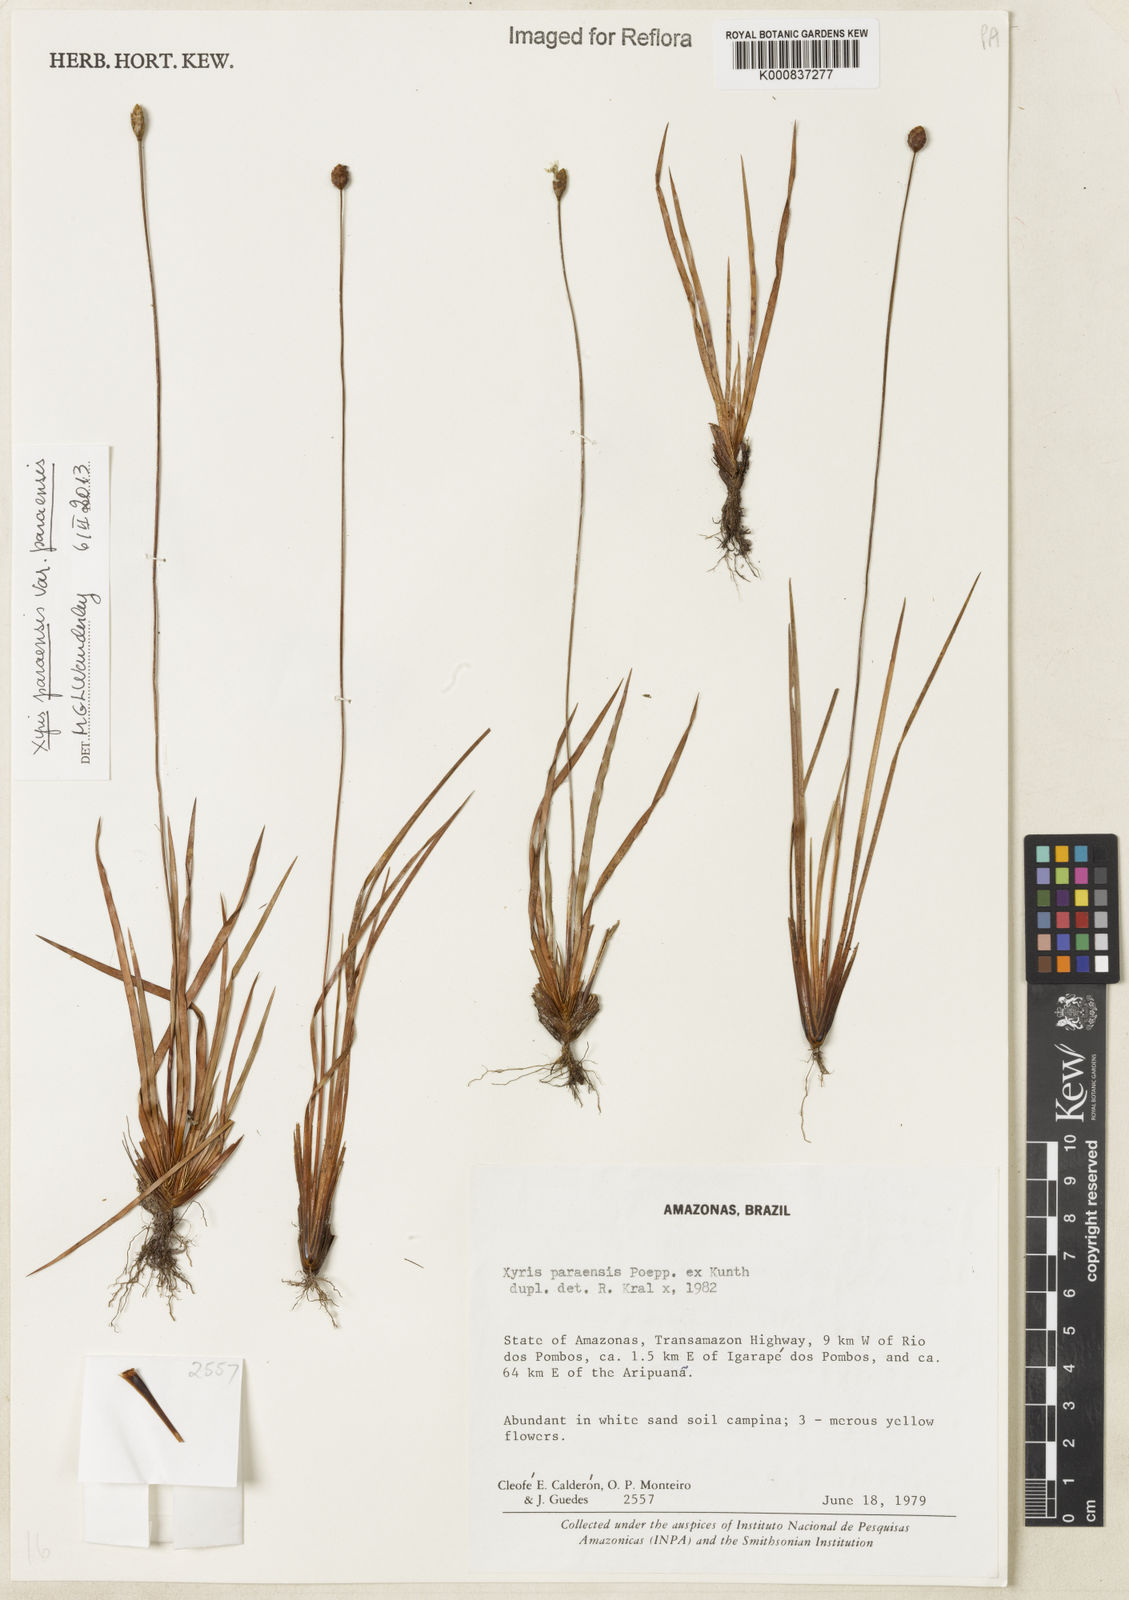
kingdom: Plantae
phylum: Tracheophyta
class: Liliopsida
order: Poales
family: Xyridaceae
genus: Xyris
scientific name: Xyris paraensis
